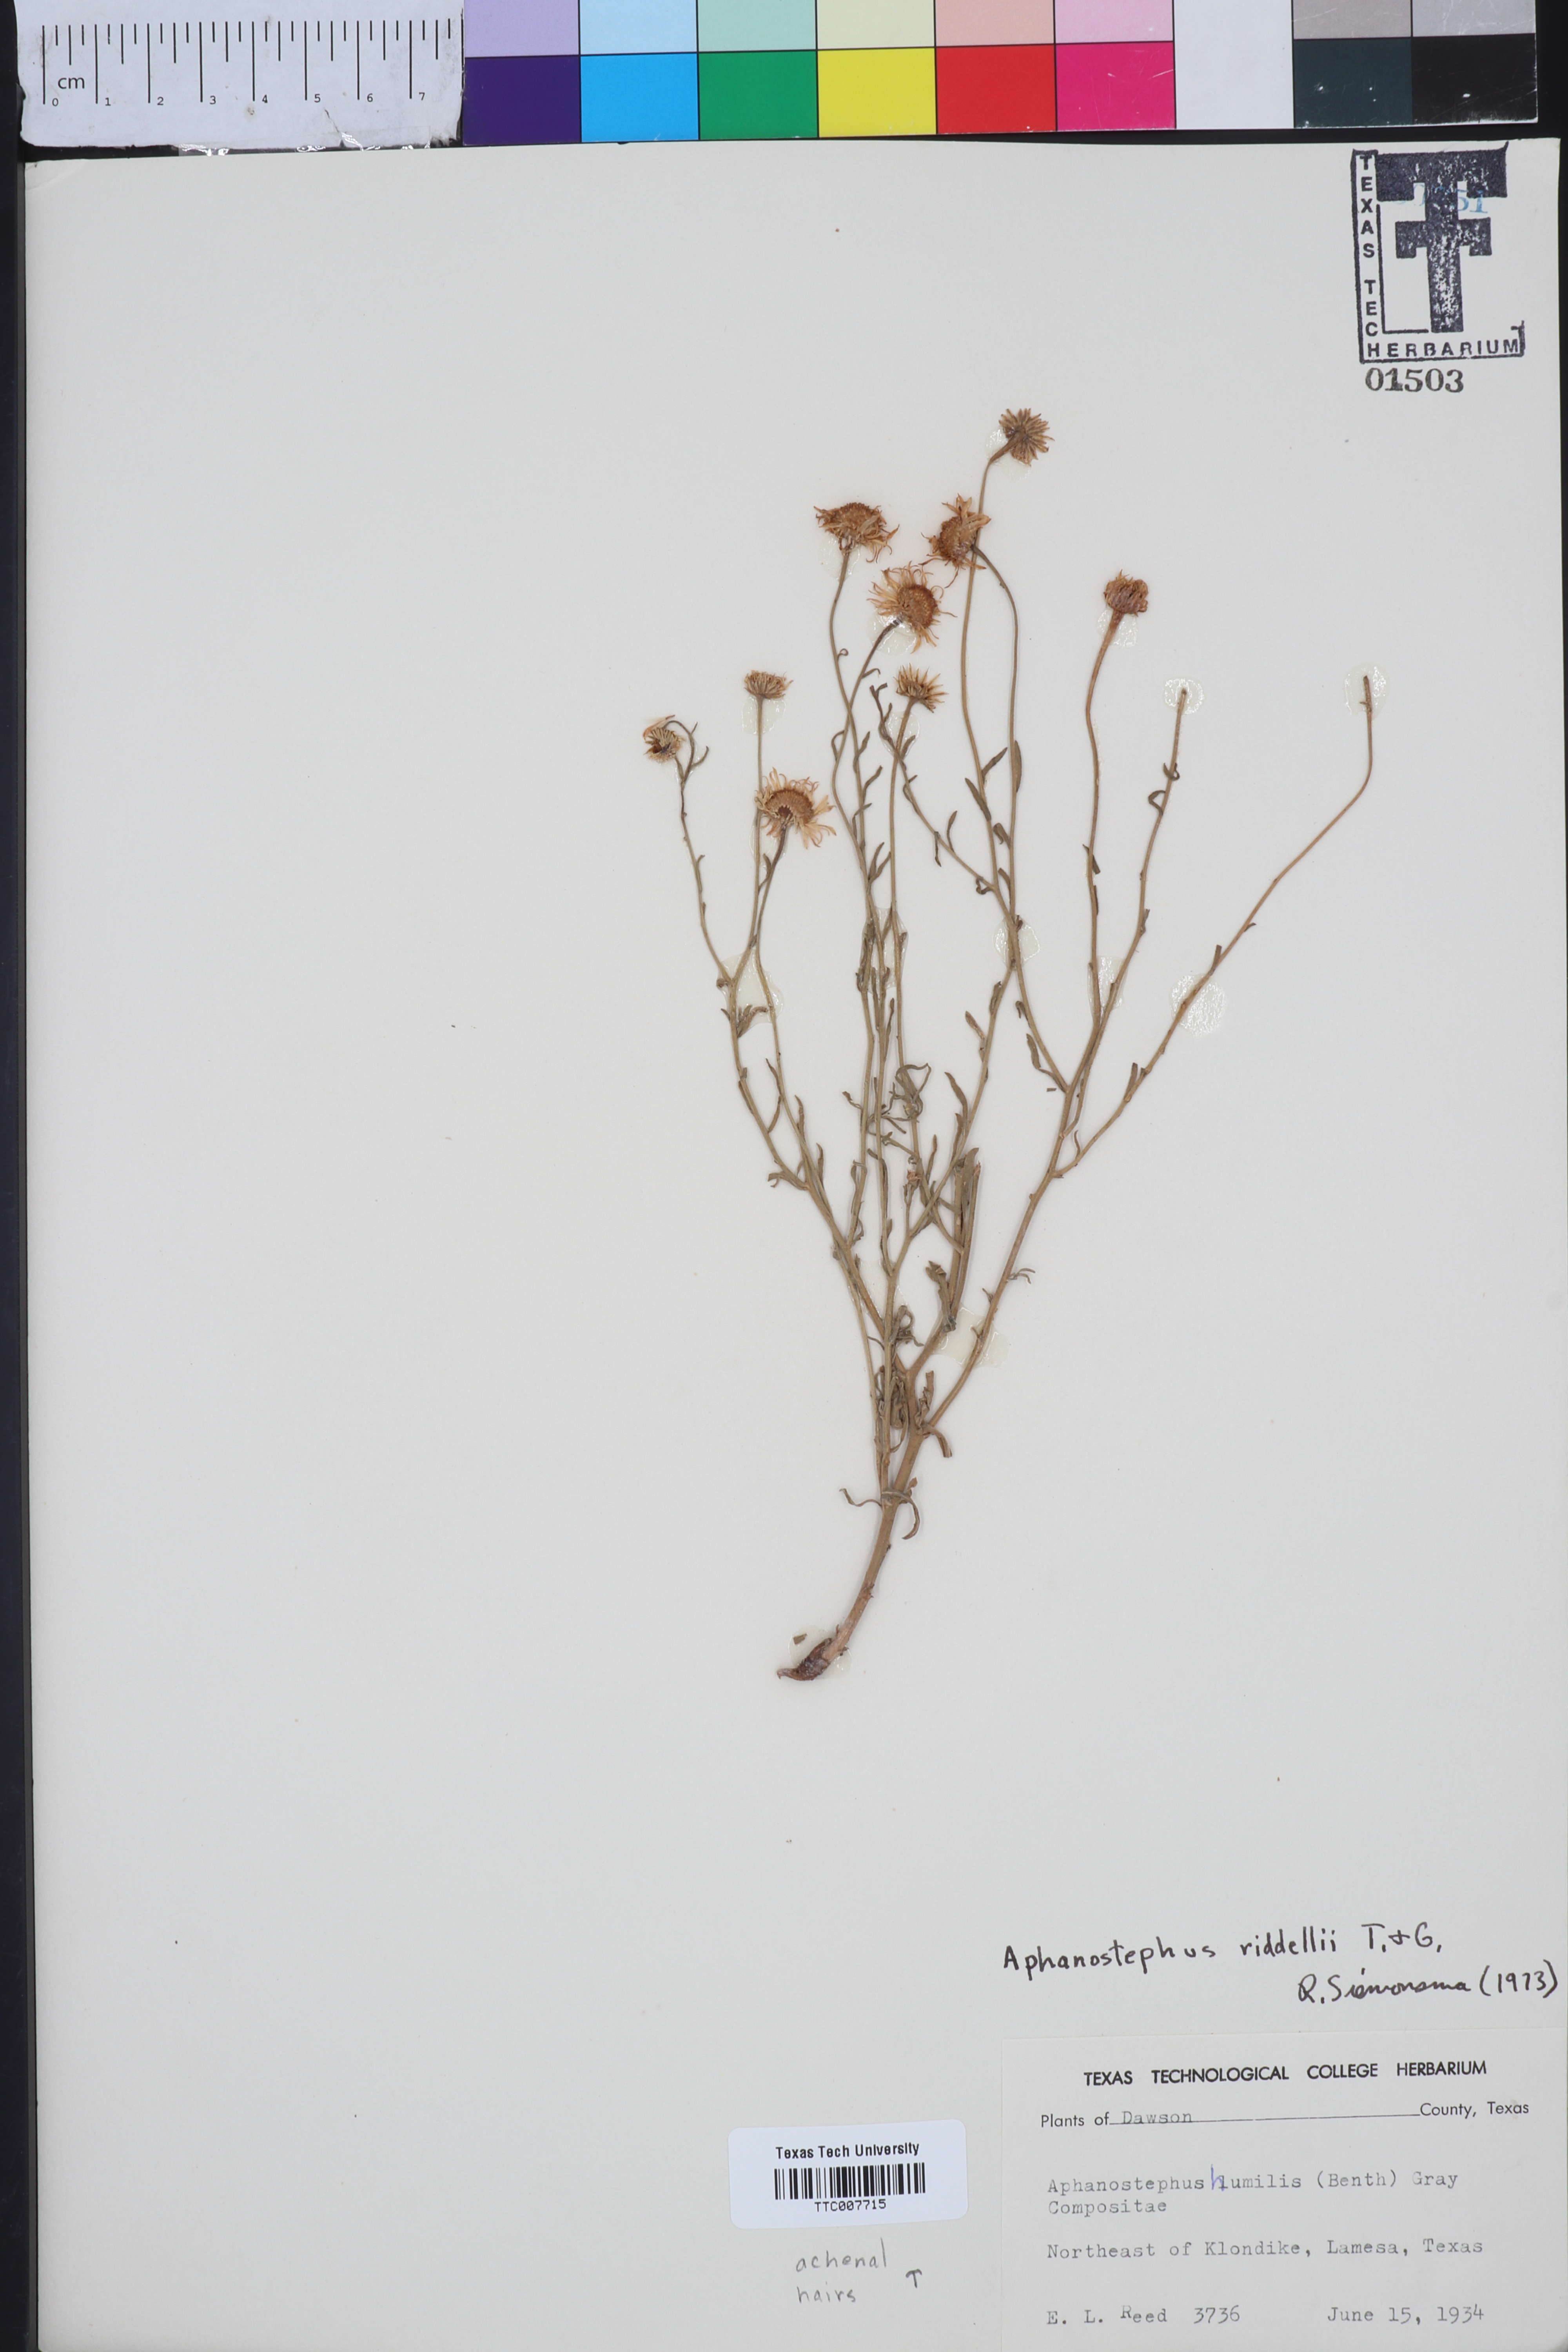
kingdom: Plantae
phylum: Tracheophyta
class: Magnoliopsida
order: Asterales
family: Asteraceae
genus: Aphanostephus
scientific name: Aphanostephus riddellii
